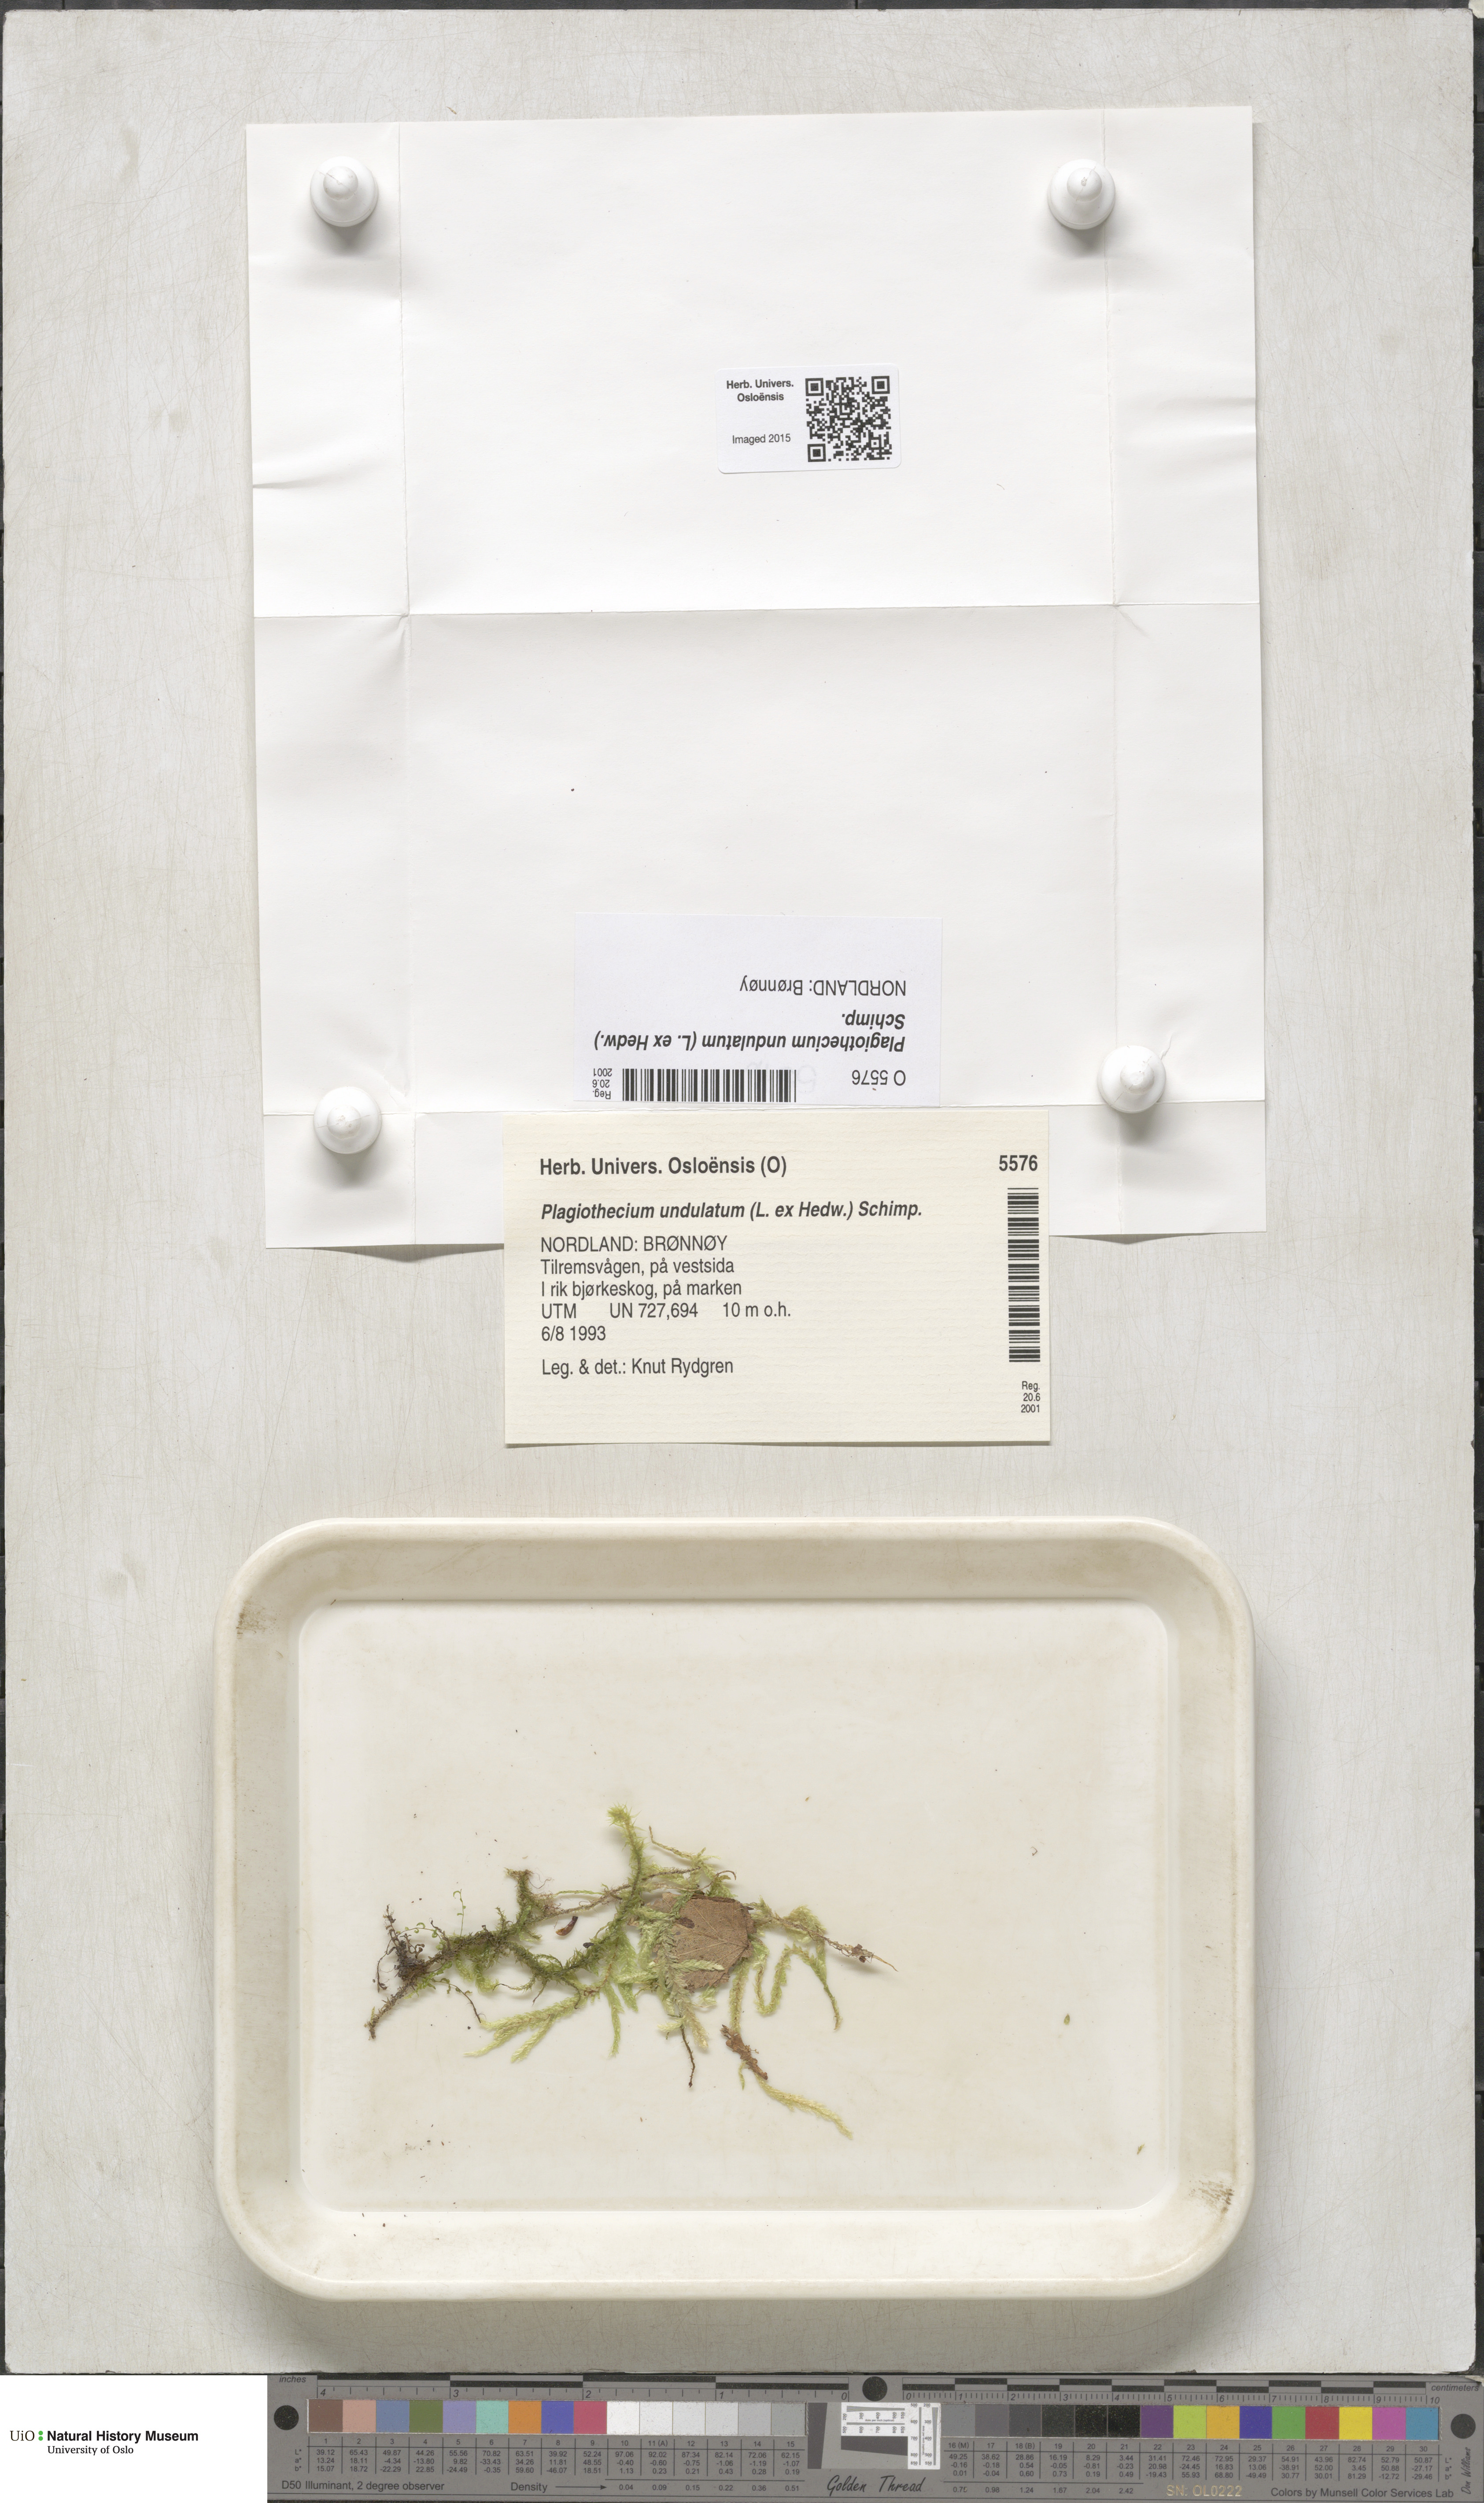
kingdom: Plantae
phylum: Bryophyta
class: Bryopsida
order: Hypnales
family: Plagiotheciaceae
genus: Plagiothecium
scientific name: Plagiothecium undulatum
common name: Waved silk-moss
